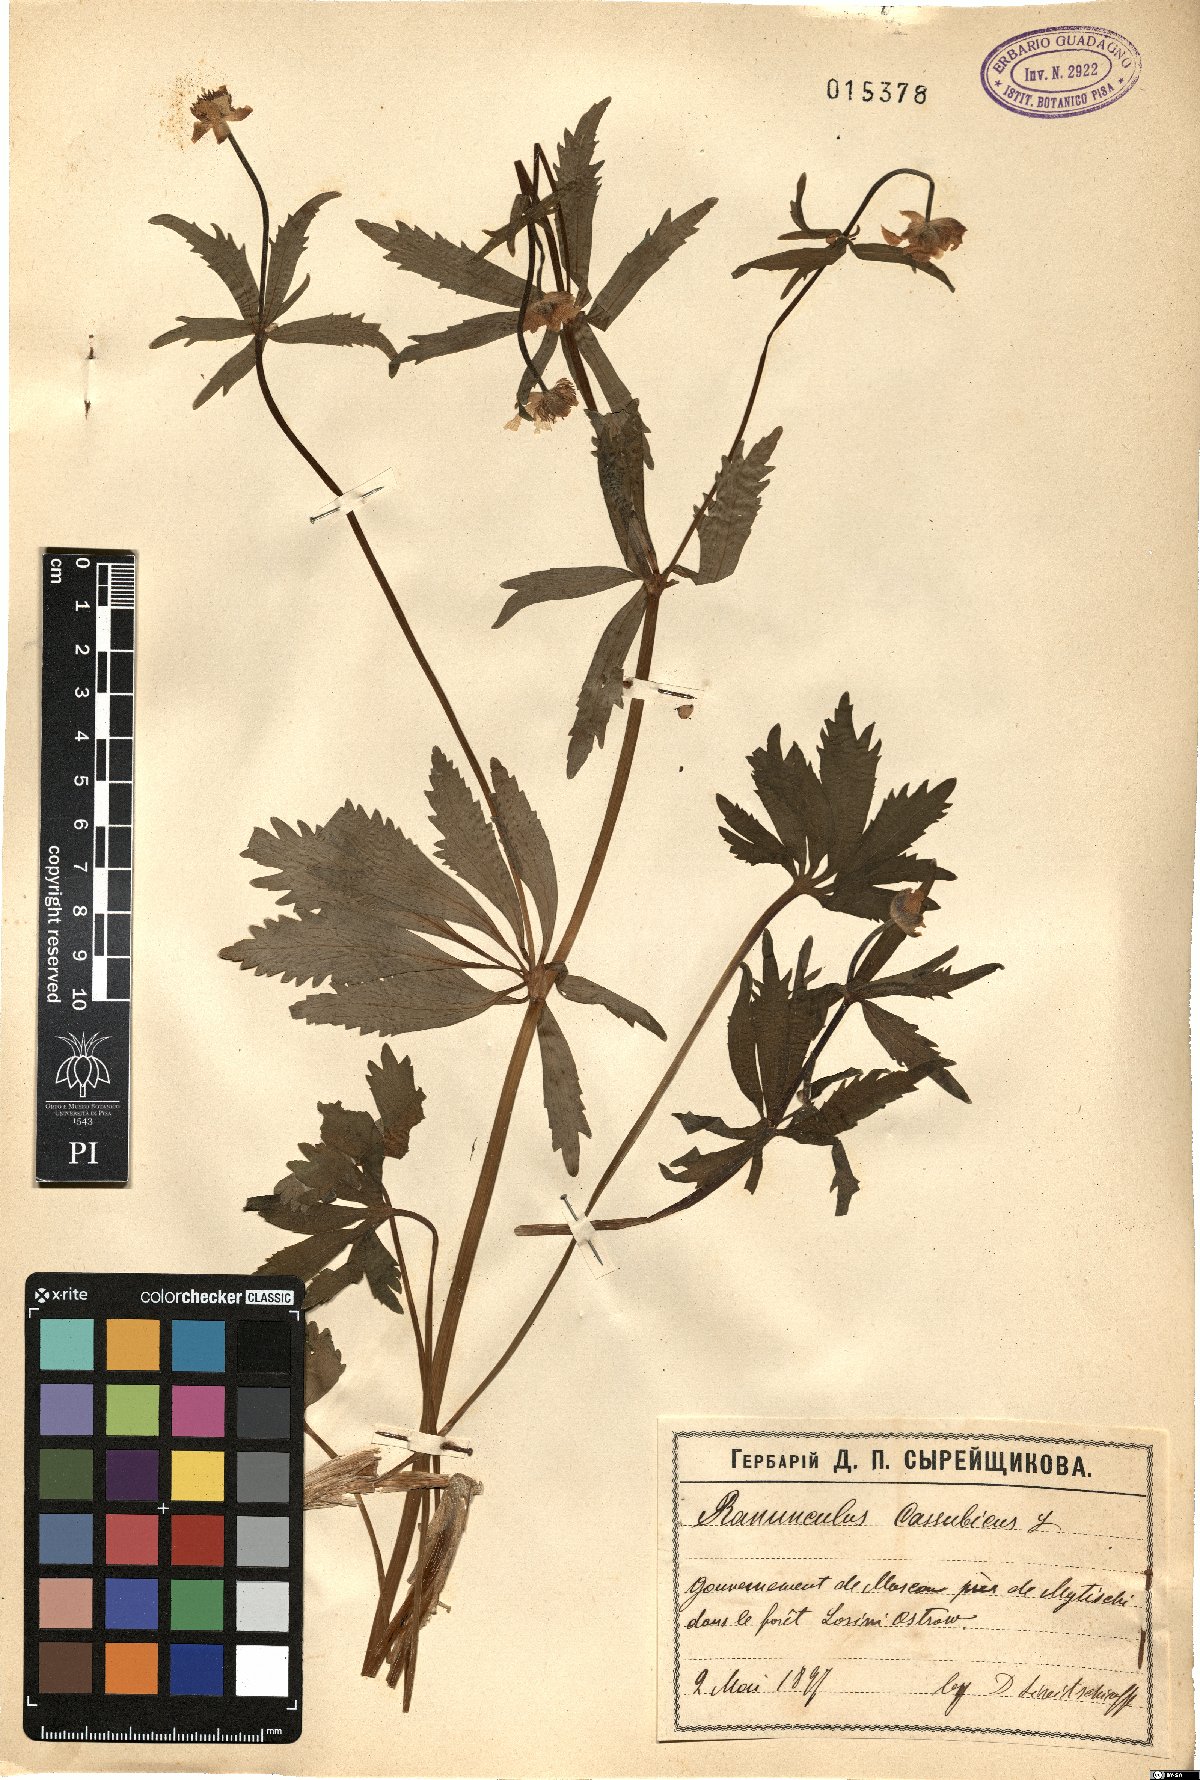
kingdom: Plantae
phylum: Tracheophyta
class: Magnoliopsida
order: Ranunculales
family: Ranunculaceae
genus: Ranunculus
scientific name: Ranunculus cassubicus
